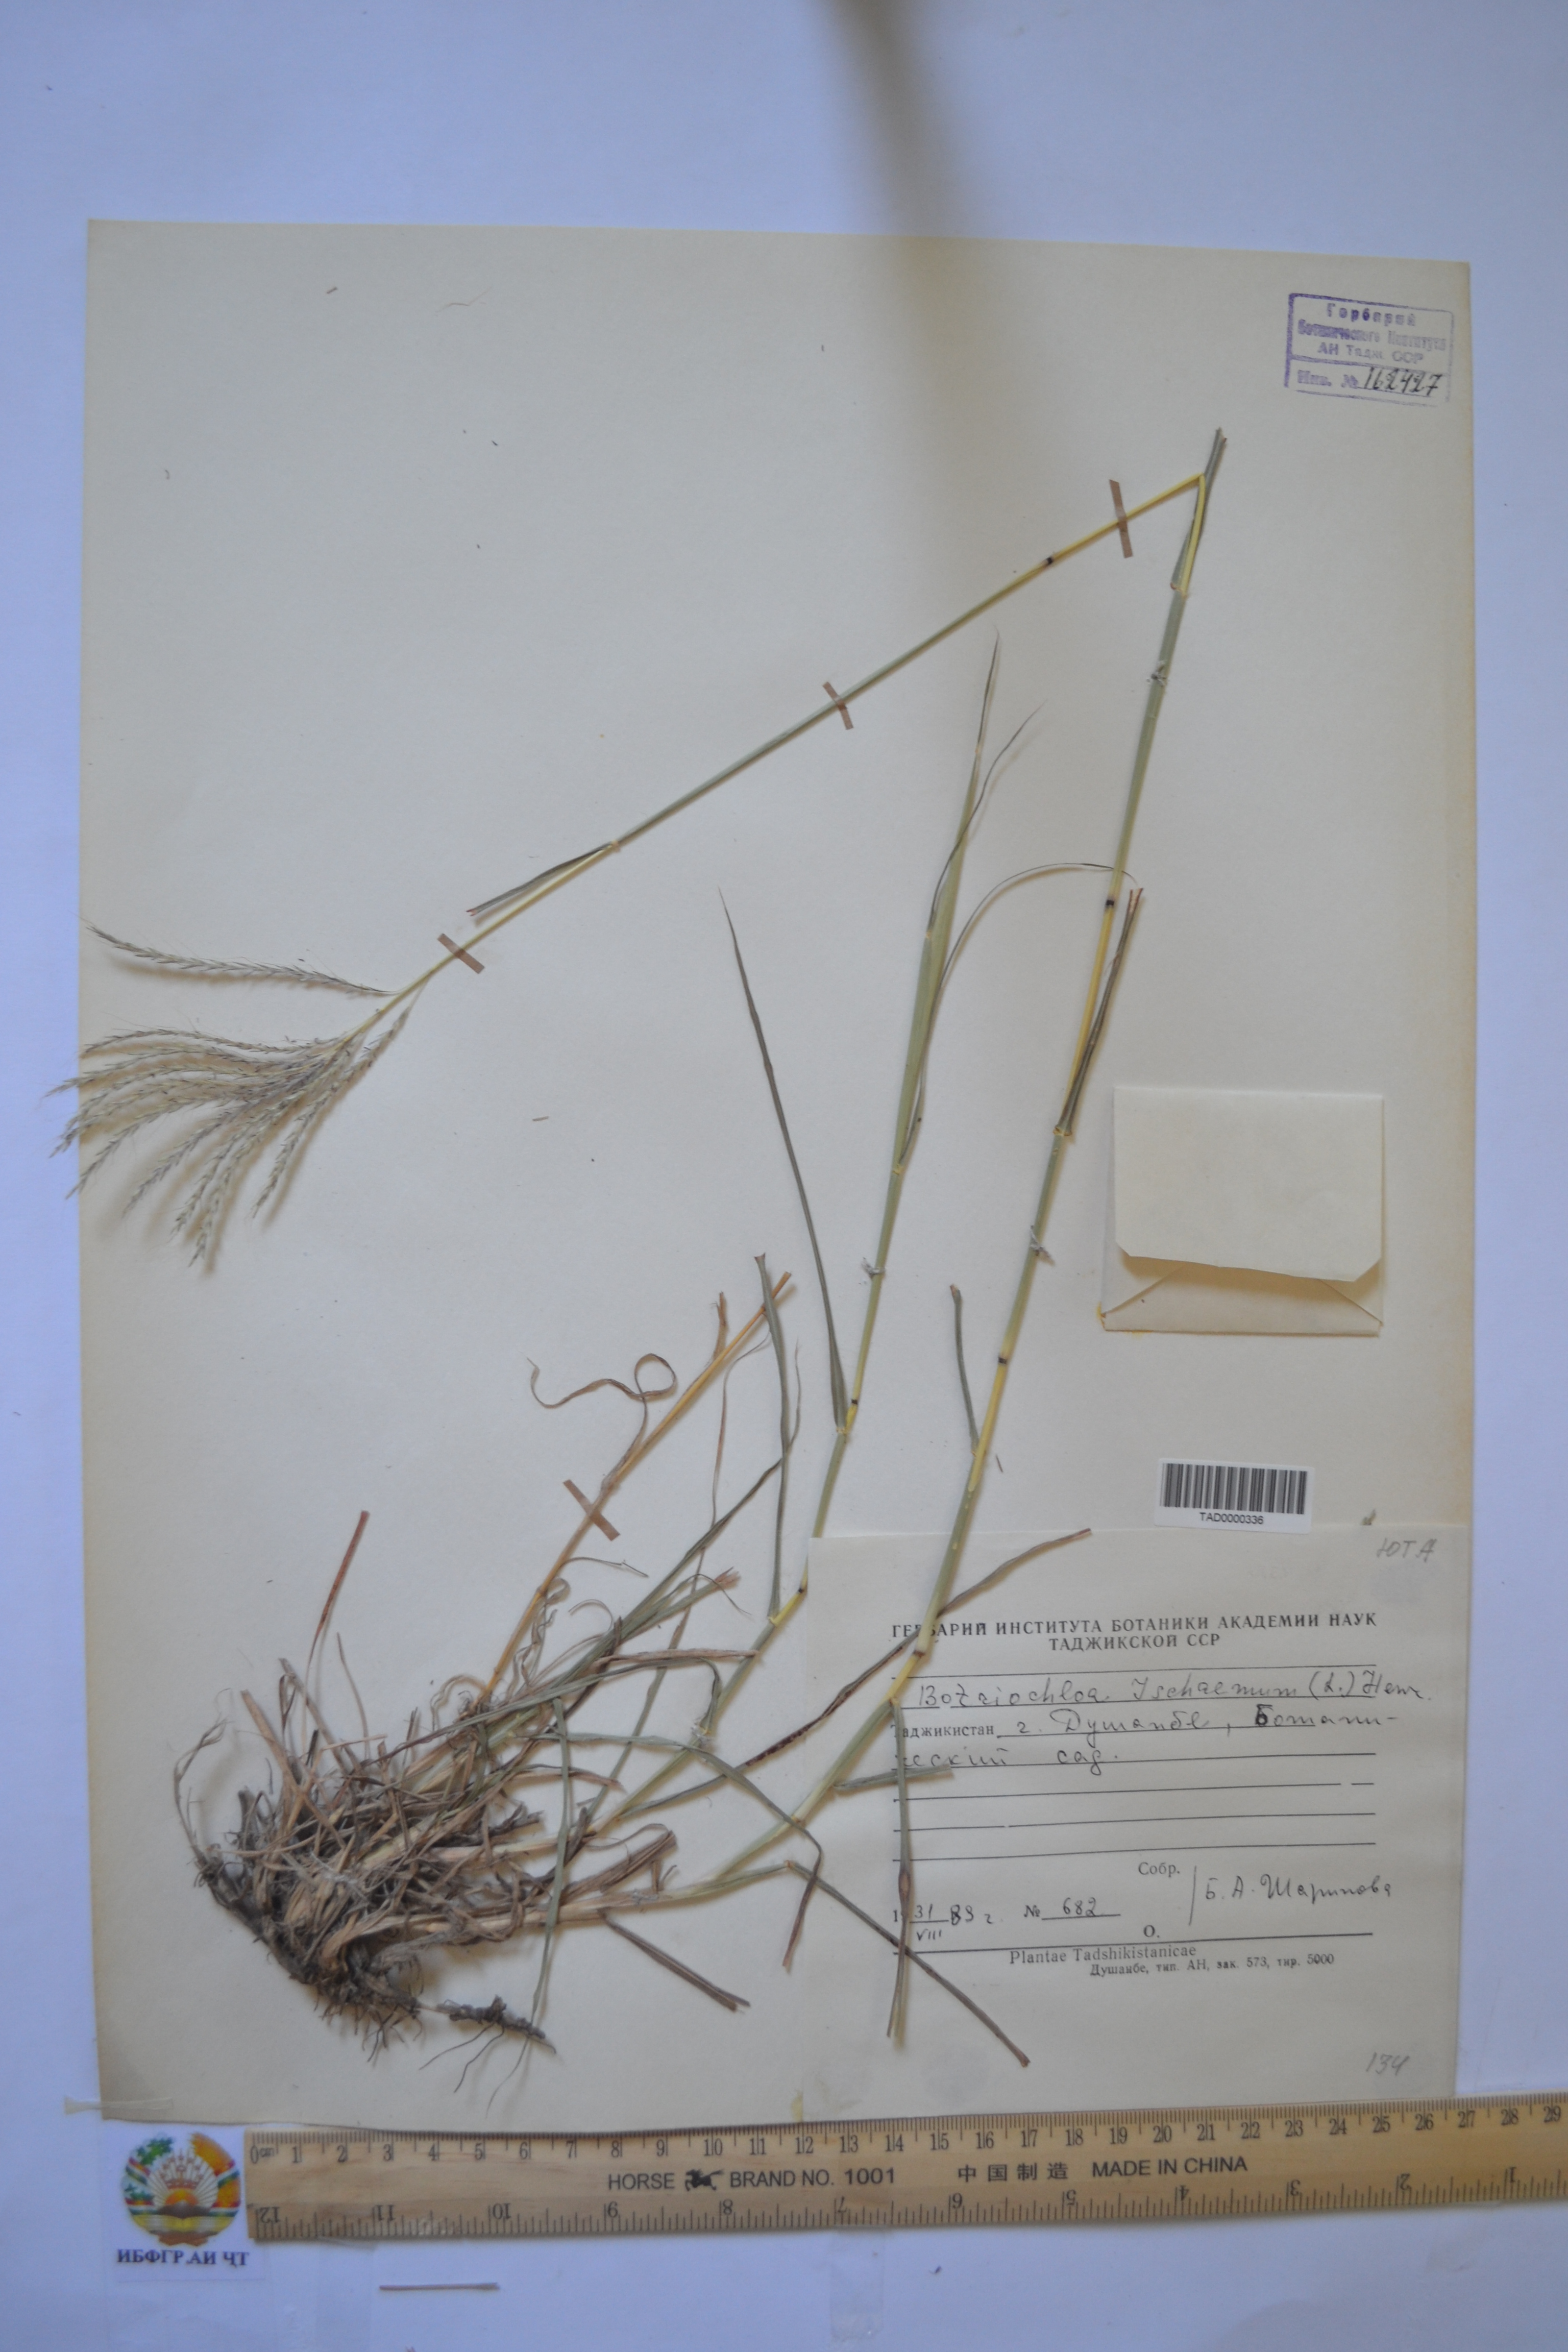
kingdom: Plantae
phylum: Tracheophyta
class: Liliopsida
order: Poales
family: Poaceae
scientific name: Poaceae
